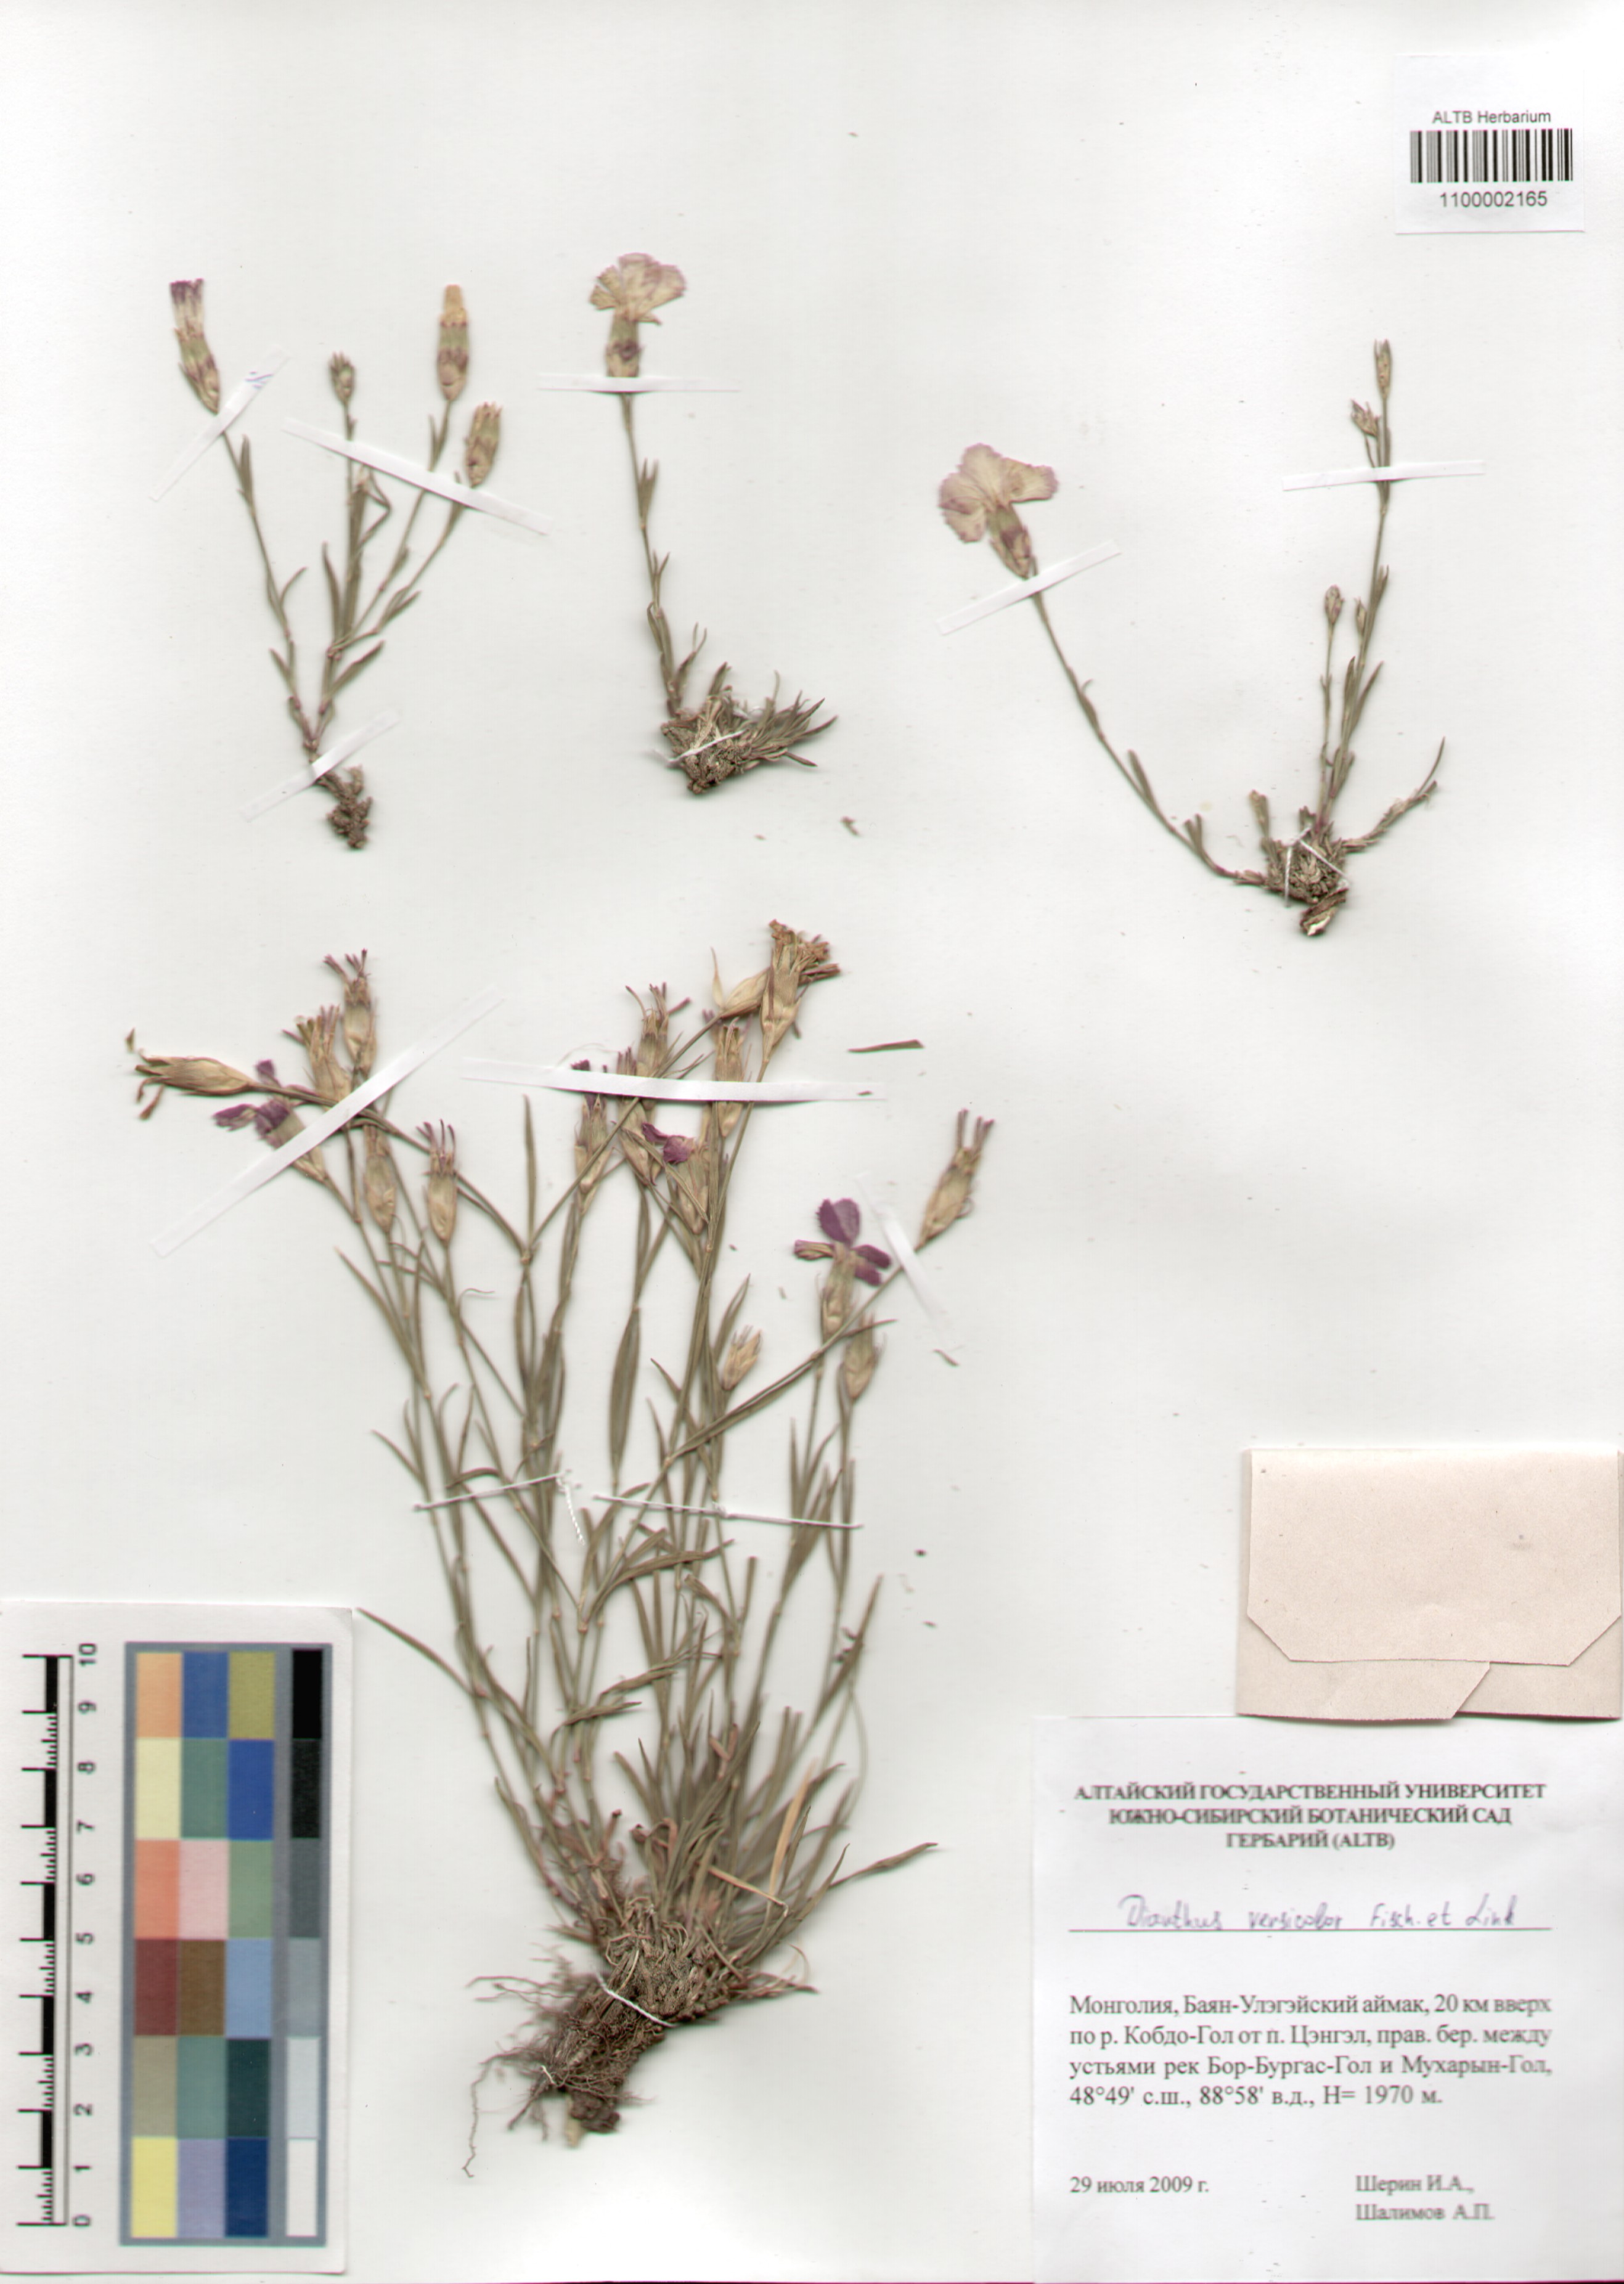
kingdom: Plantae
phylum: Tracheophyta
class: Magnoliopsida
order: Caryophyllales
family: Caryophyllaceae
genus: Dianthus
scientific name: Dianthus chinensis
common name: Rainbow pink
